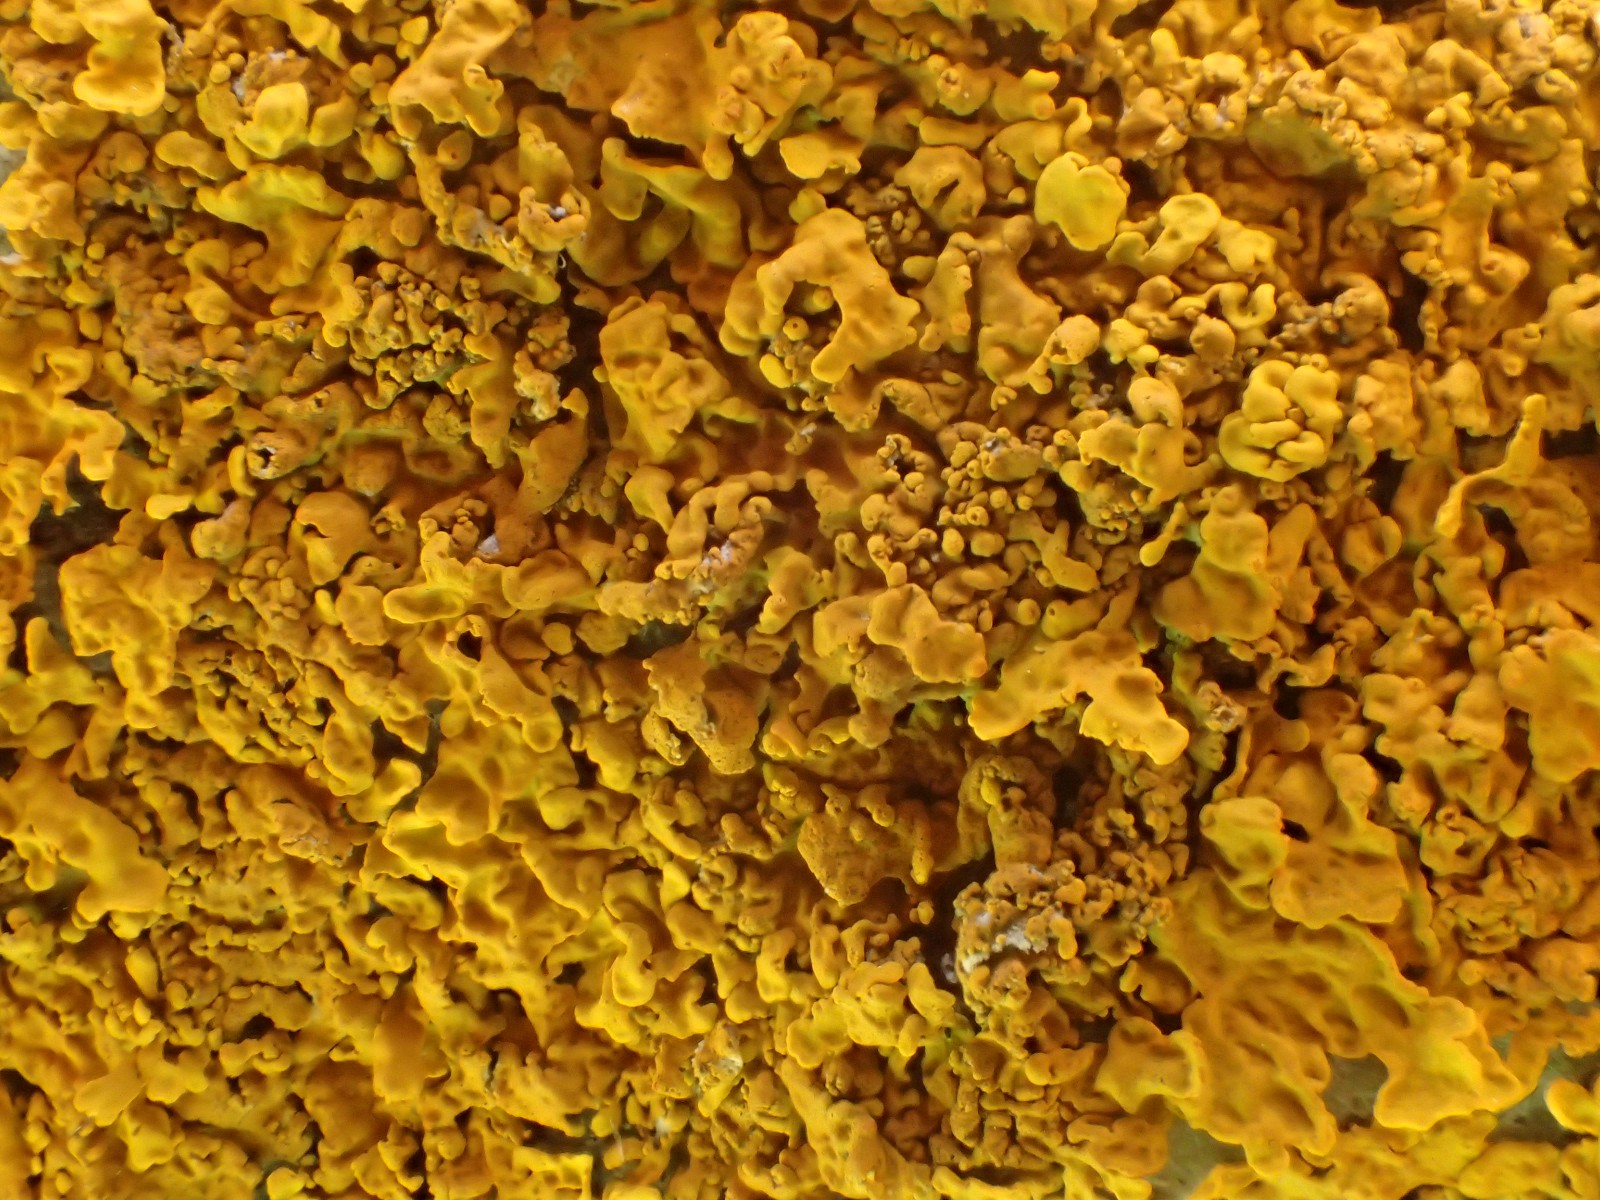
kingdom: Fungi
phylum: Ascomycota
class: Lecanoromycetes
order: Teloschistales
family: Teloschistaceae
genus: Xanthoria
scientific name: Xanthoria calcicola
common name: vortet væggelav
